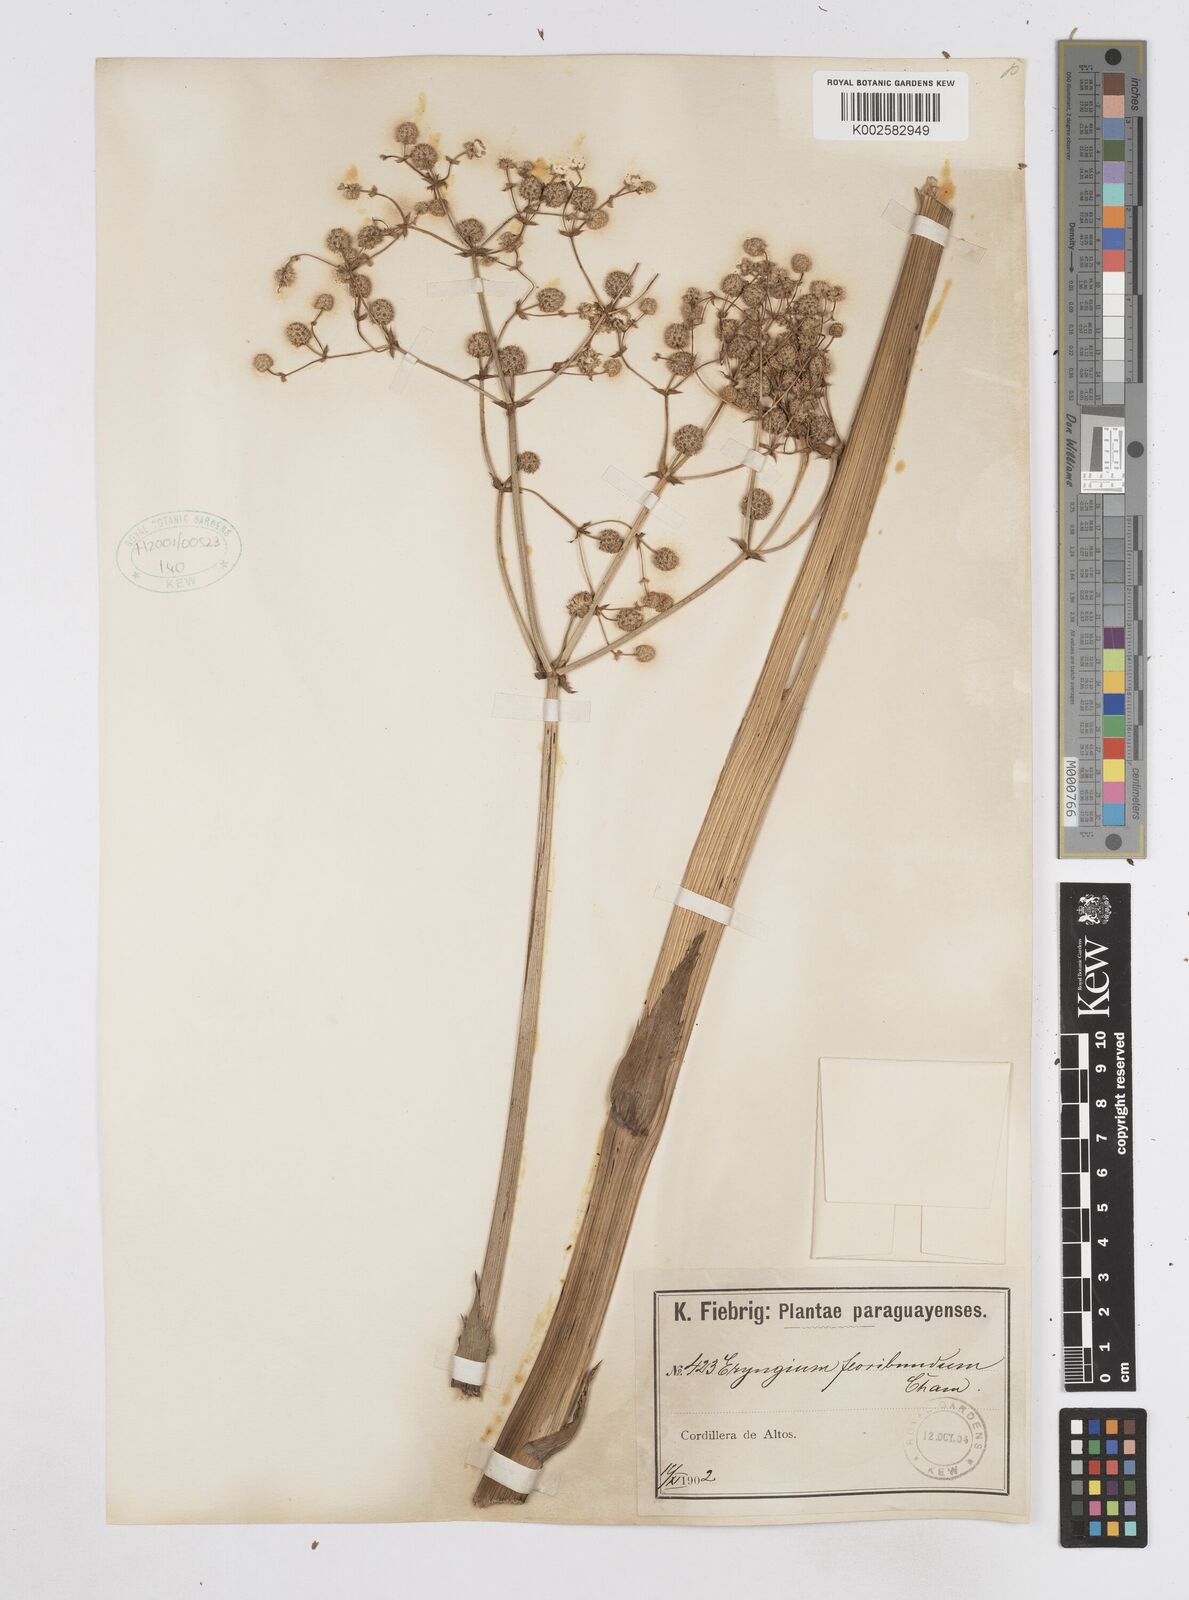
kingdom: Plantae
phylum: Tracheophyta
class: Magnoliopsida
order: Apiales
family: Apiaceae
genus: Eryngium
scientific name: Eryngium floribundum
